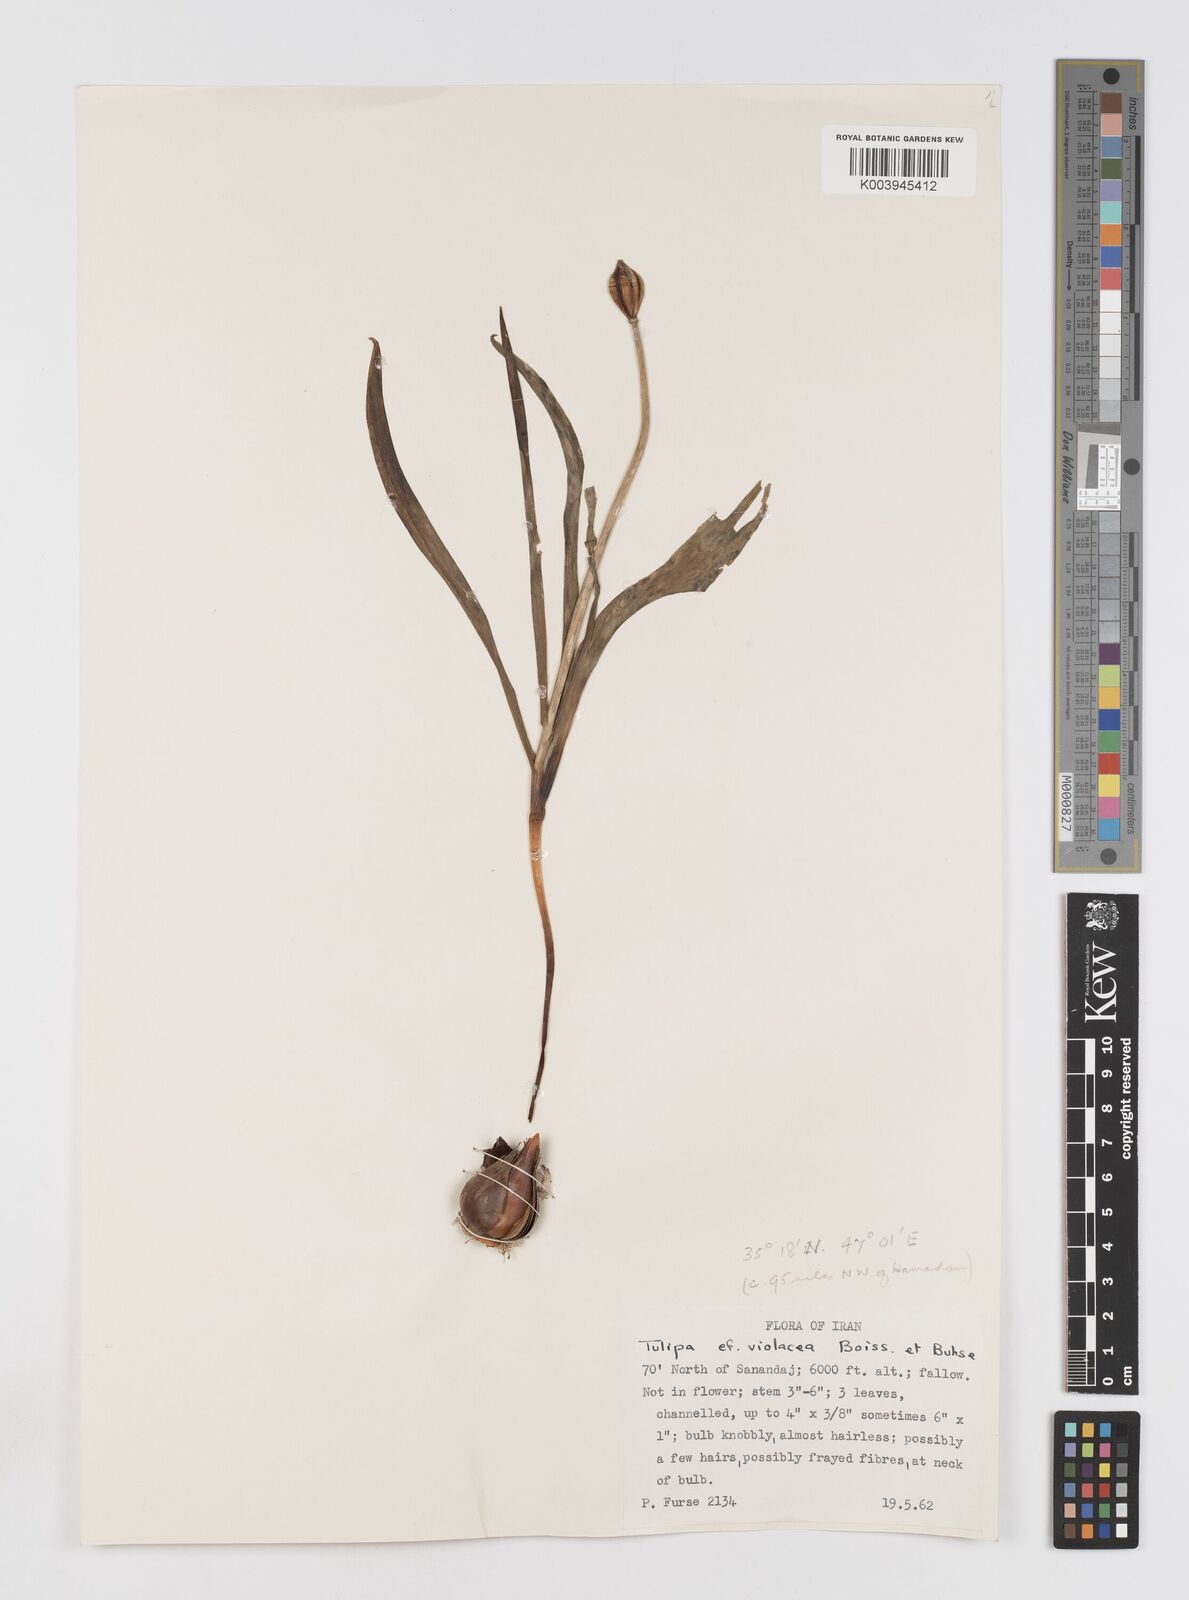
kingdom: Plantae
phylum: Tracheophyta
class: Liliopsida
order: Liliales
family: Liliaceae
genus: Tulipa
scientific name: Tulipa humilis
